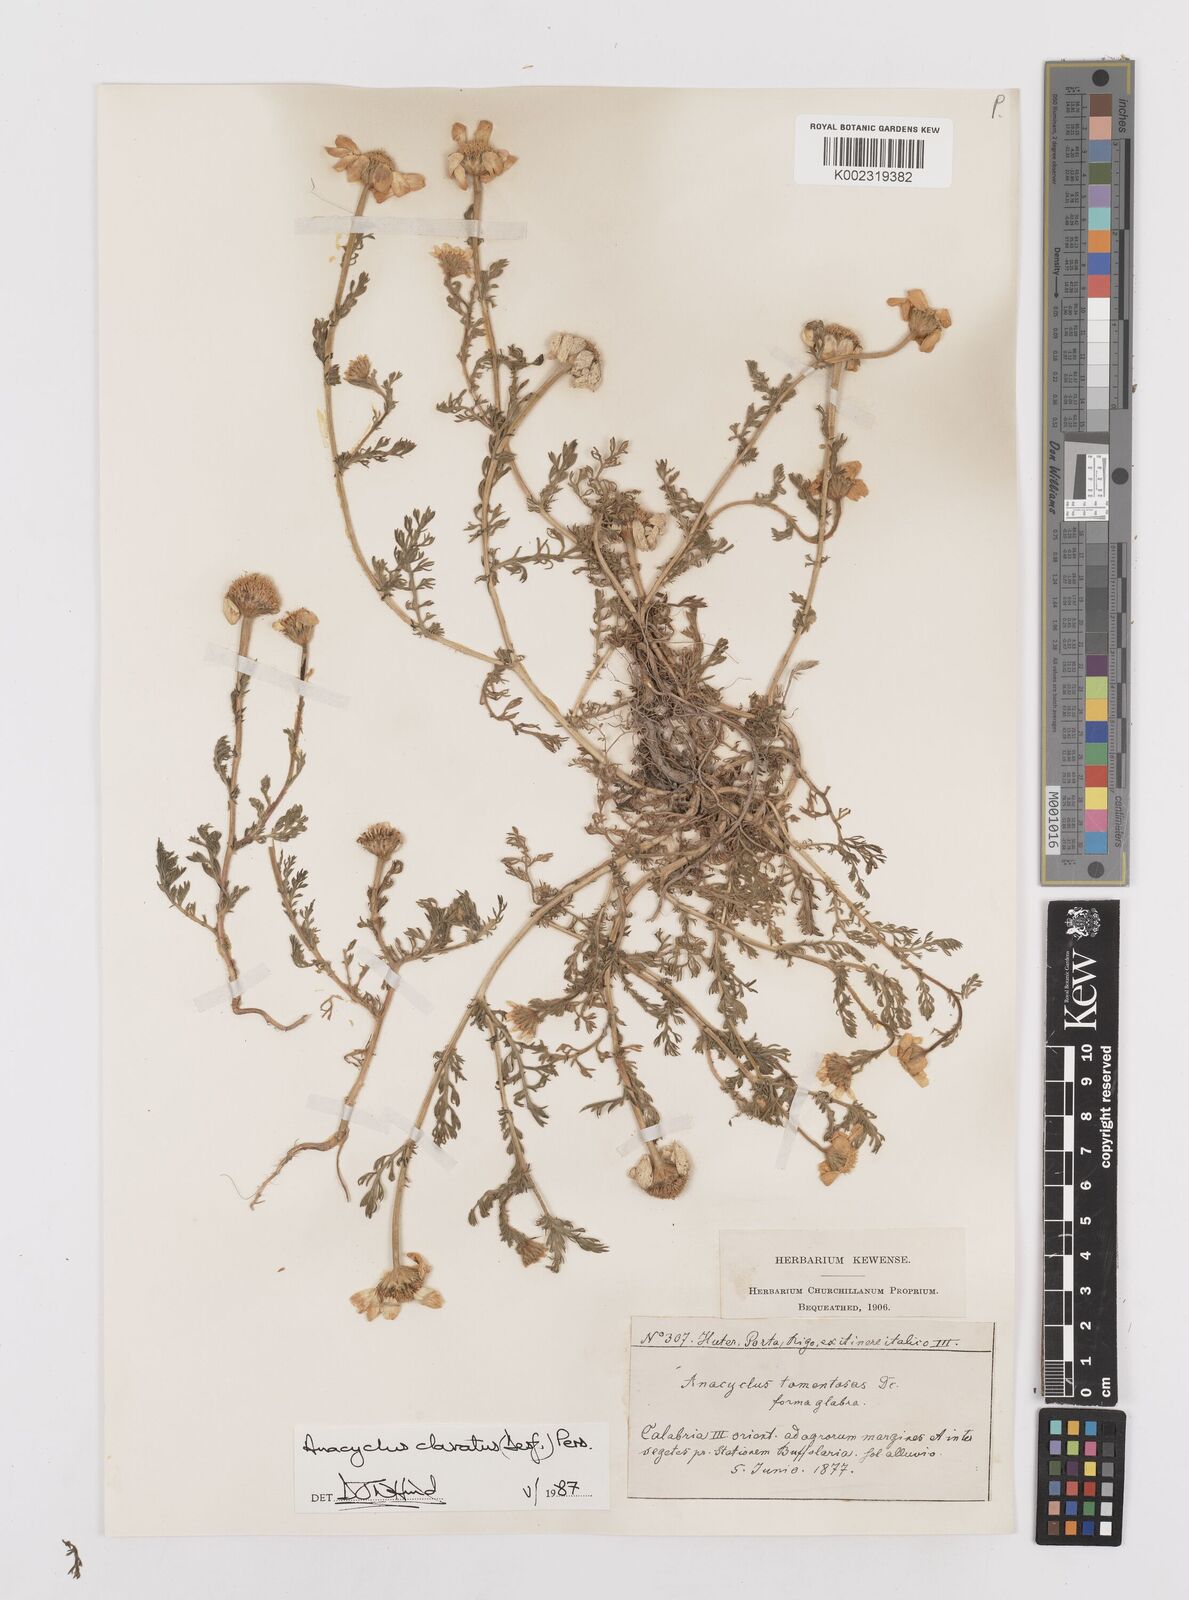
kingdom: Plantae
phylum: Tracheophyta
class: Magnoliopsida
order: Asterales
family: Asteraceae
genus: Anacyclus
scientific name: Anacyclus clavatus
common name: Whitebuttons
